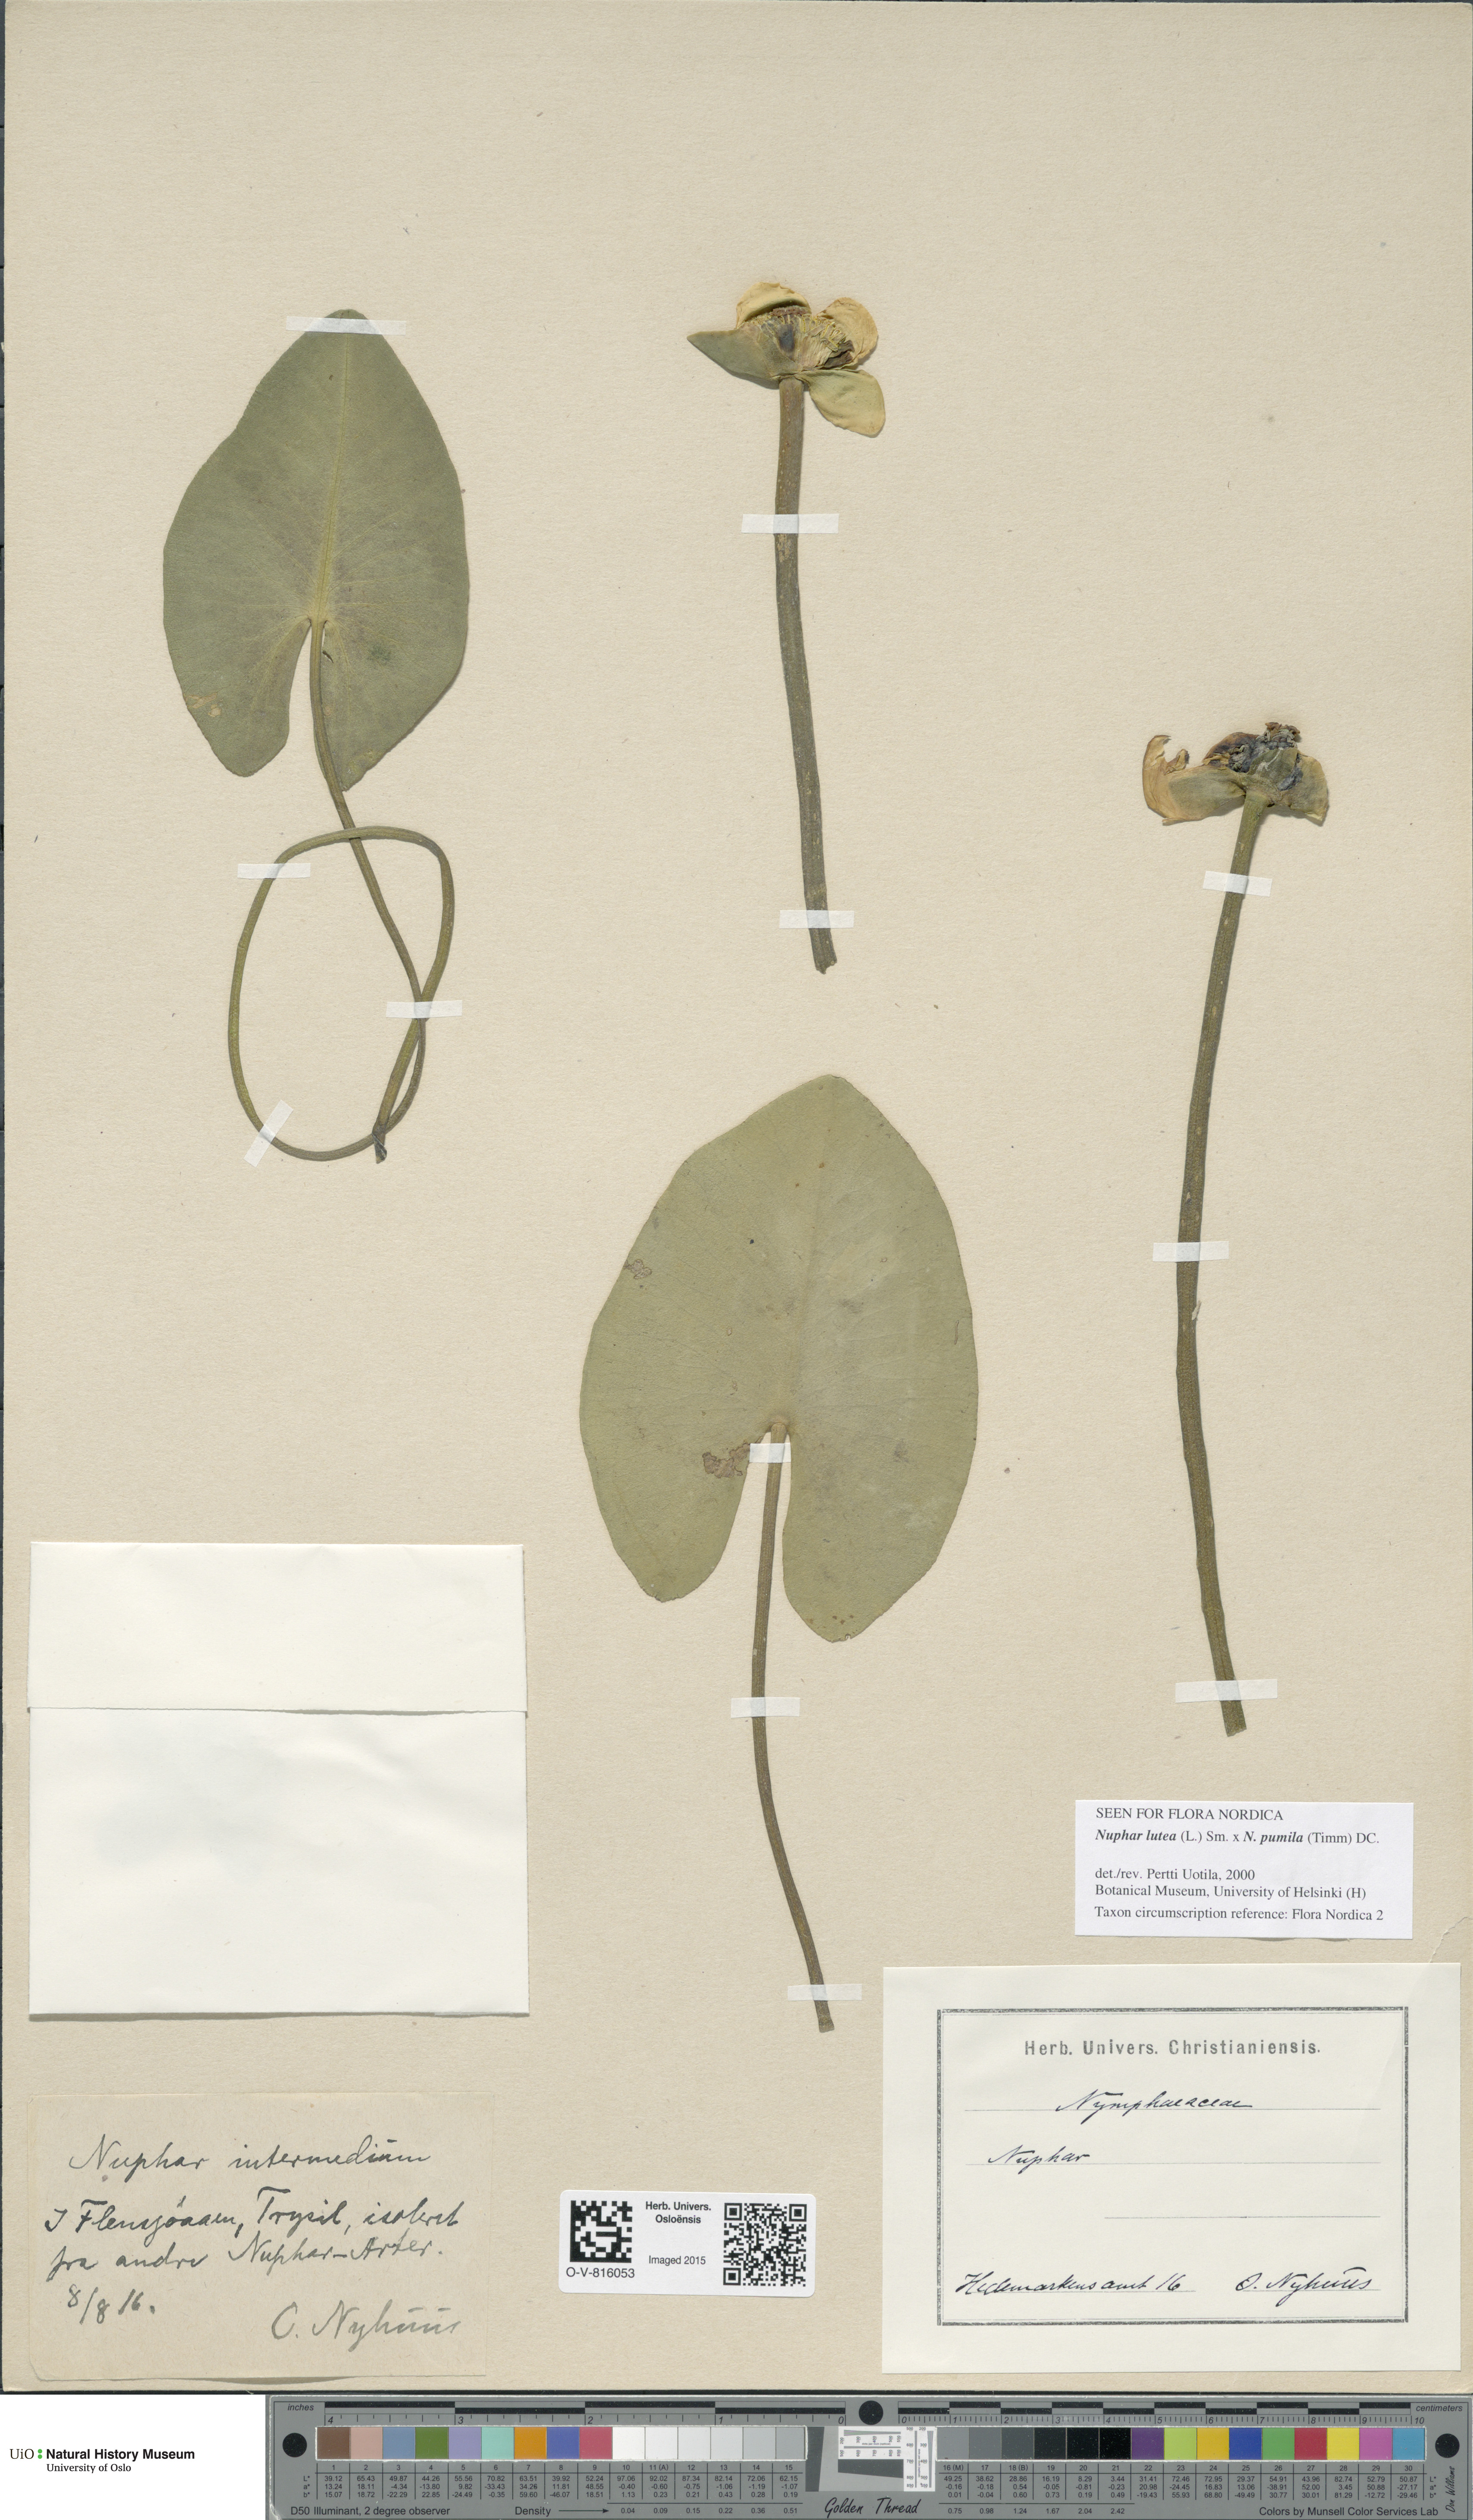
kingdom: Plantae
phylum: Tracheophyta
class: Magnoliopsida
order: Nymphaeales
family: Nymphaeaceae
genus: Nuphar
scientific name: Nuphar
